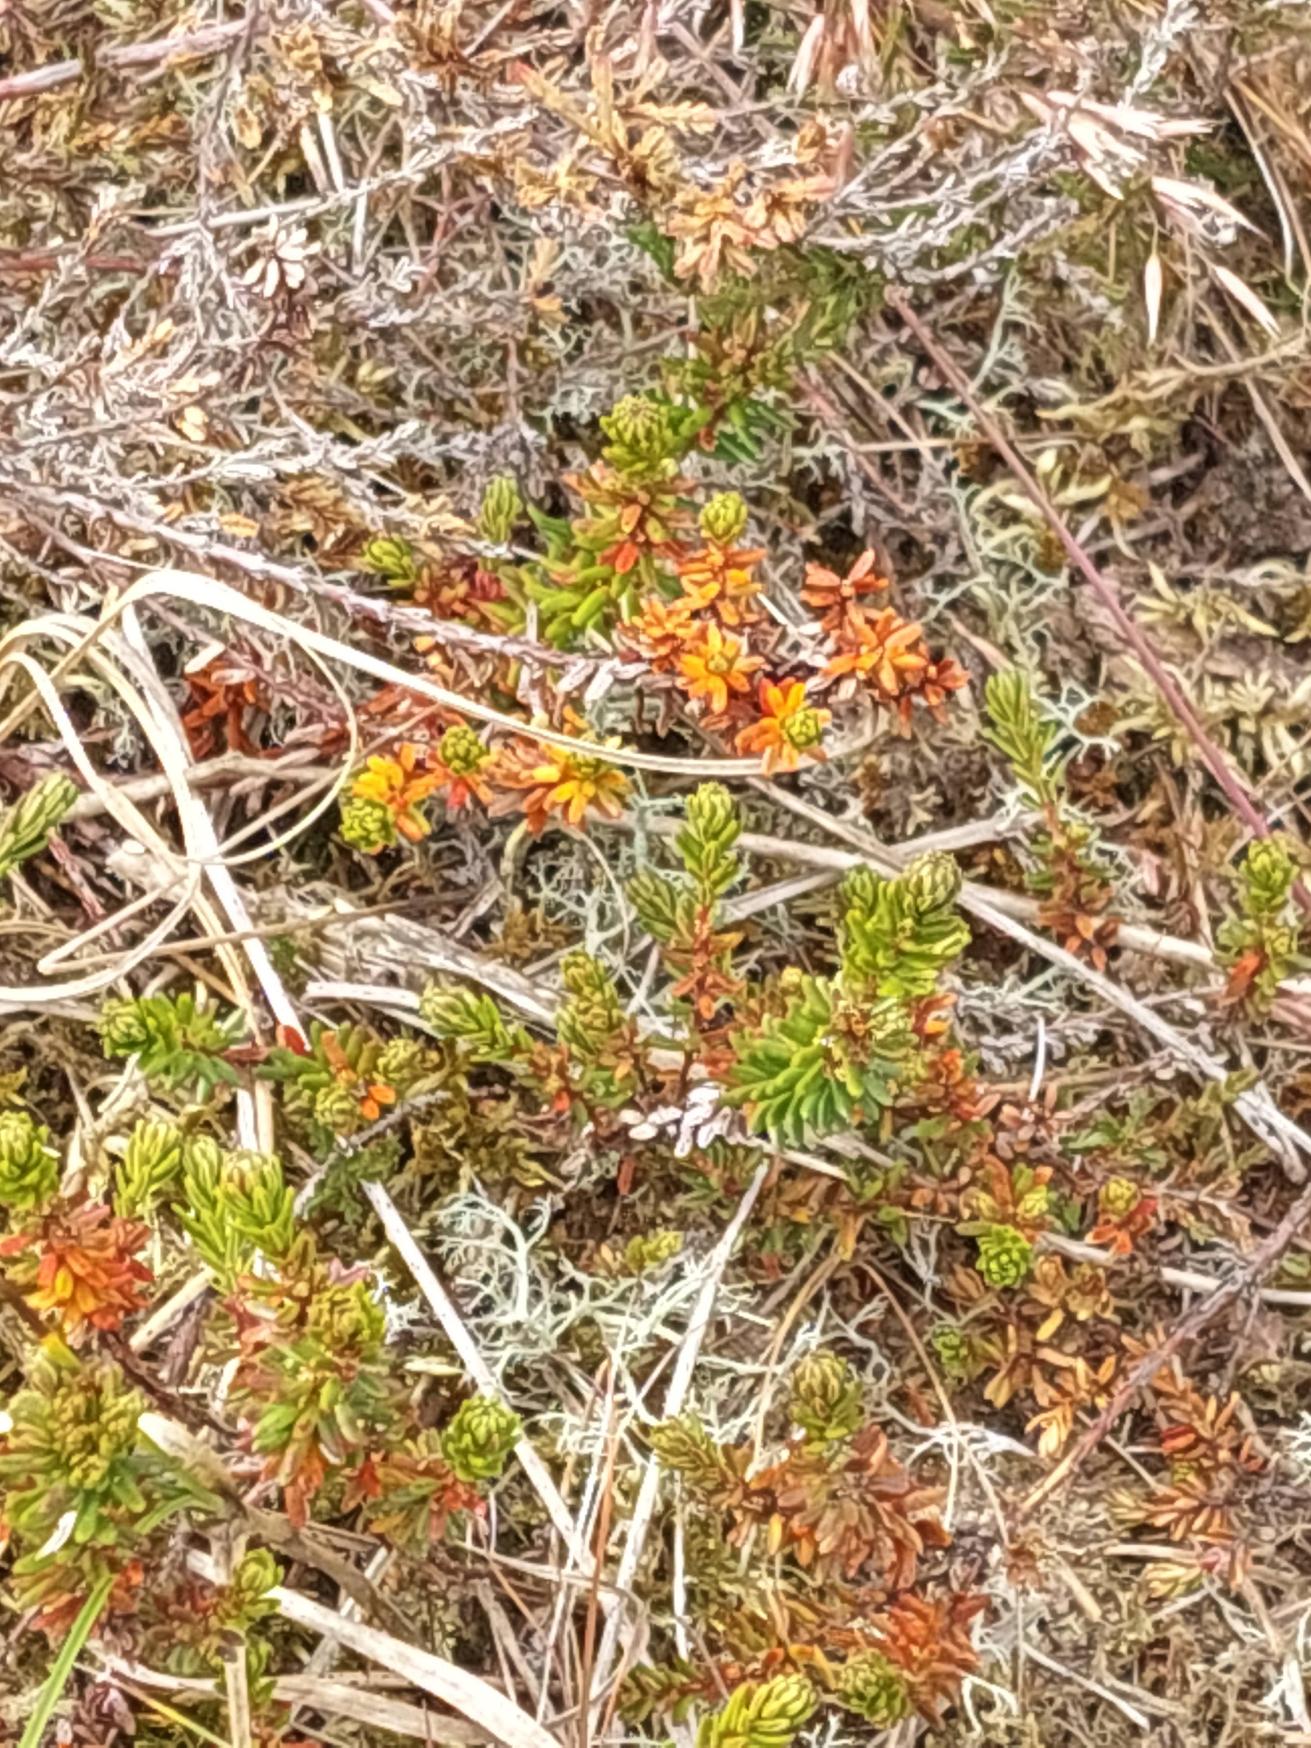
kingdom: Plantae
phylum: Tracheophyta
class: Magnoliopsida
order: Ericales
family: Ericaceae
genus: Empetrum
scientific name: Empetrum nigrum
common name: Revling
